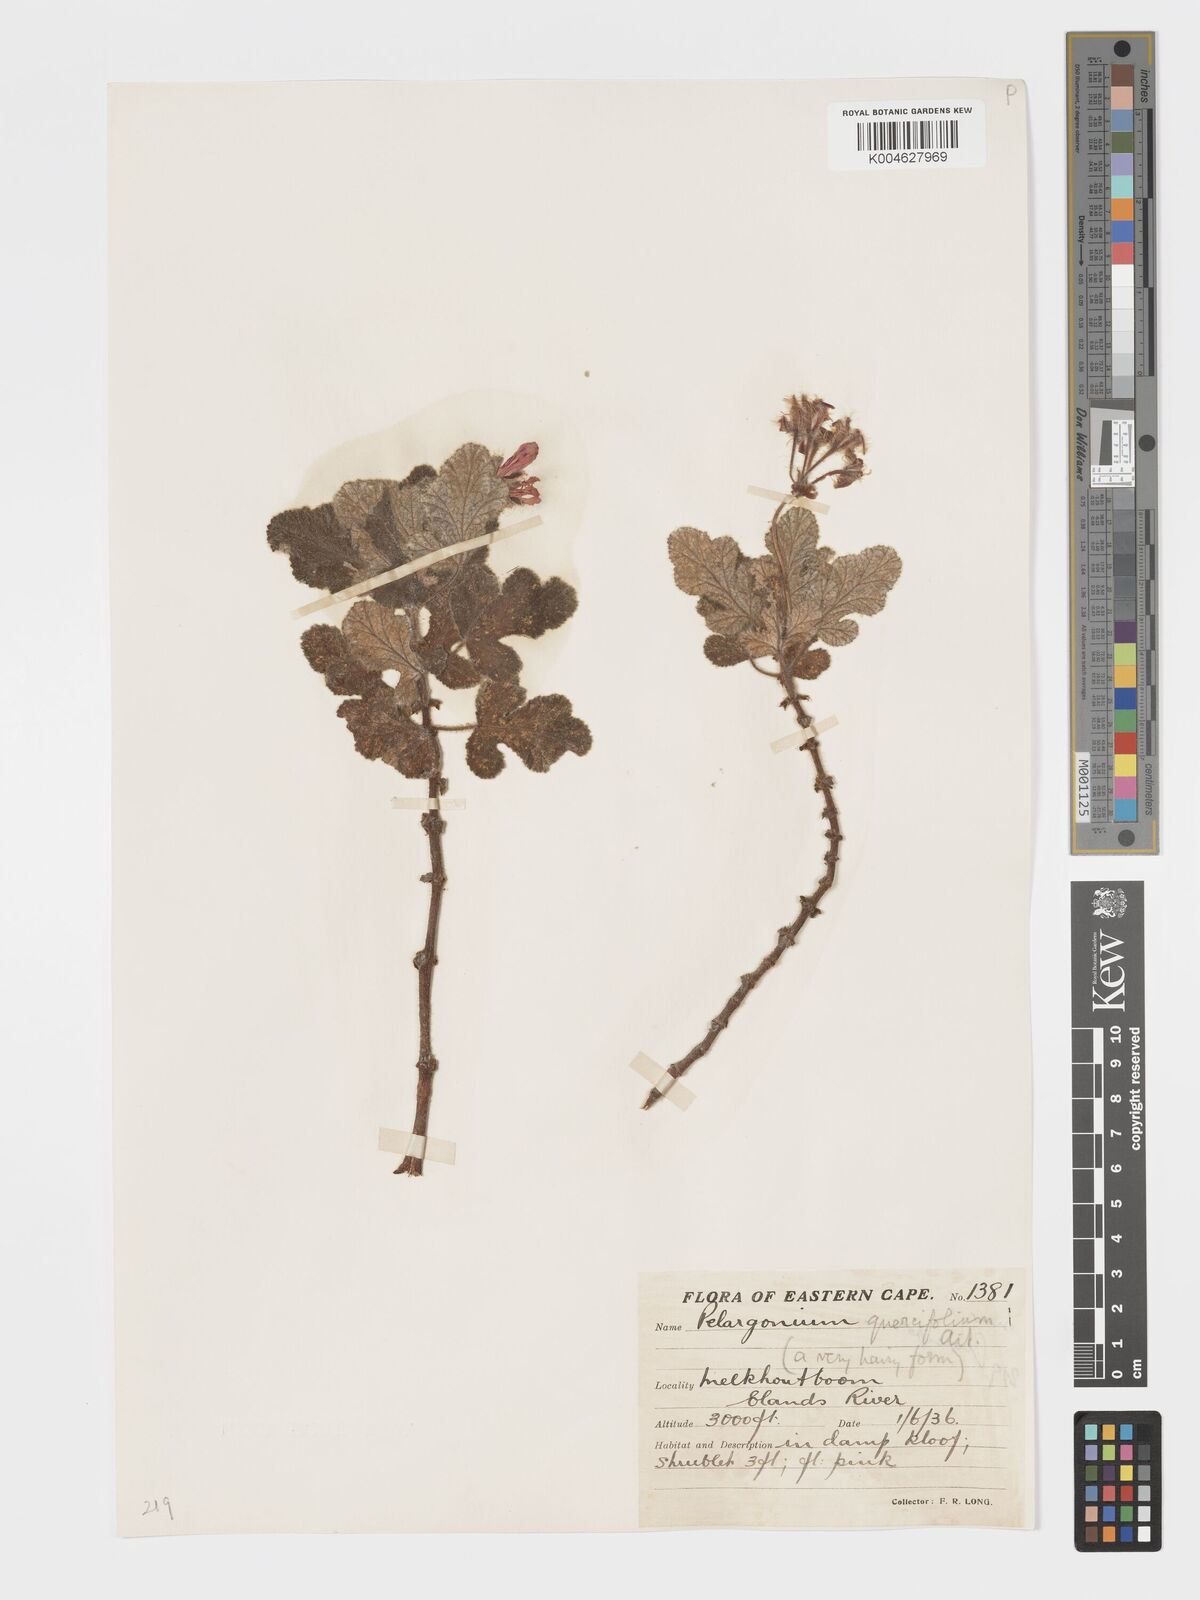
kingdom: Plantae
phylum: Tracheophyta
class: Magnoliopsida
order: Geraniales
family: Geraniaceae
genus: Pelargonium
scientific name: Pelargonium panduriforme
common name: Oakleaf garden geranium
